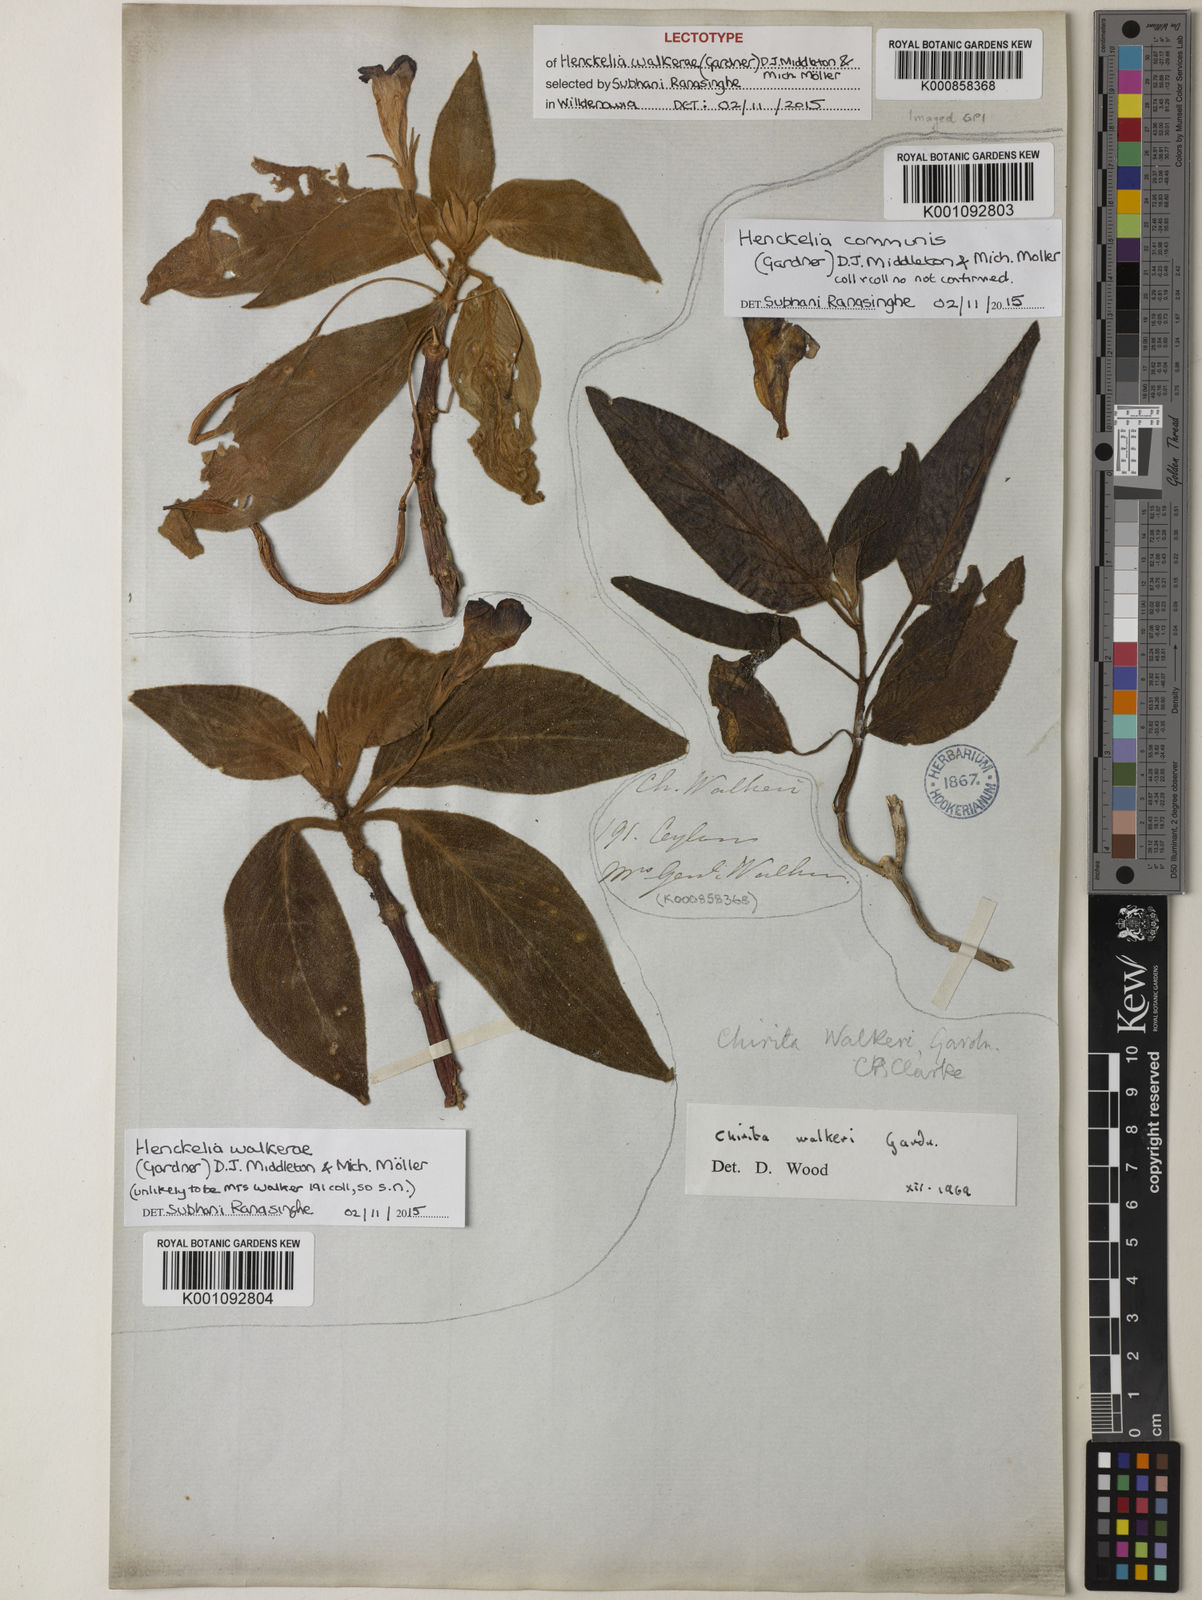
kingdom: Plantae
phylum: Tracheophyta
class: Magnoliopsida
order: Lamiales
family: Gesneriaceae
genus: Henckelia
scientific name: Henckelia
